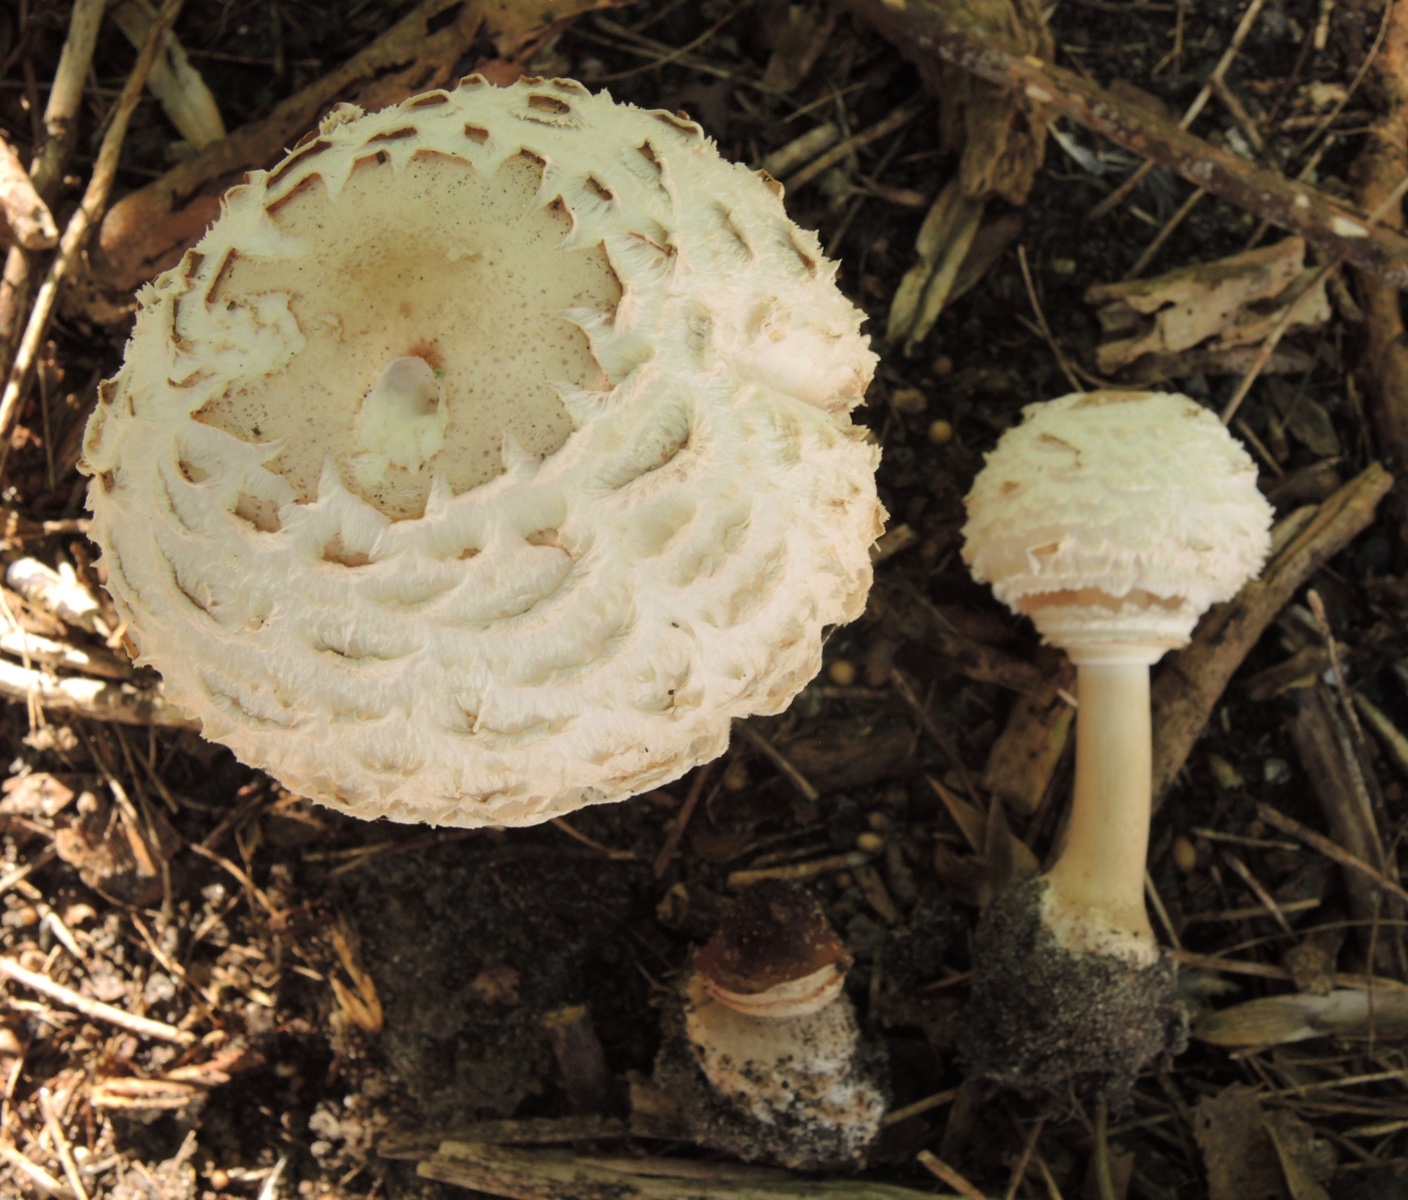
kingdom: Fungi
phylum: Basidiomycota
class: Agaricomycetes
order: Agaricales
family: Agaricaceae
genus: Chlorophyllum
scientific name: Chlorophyllum rhacodes
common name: ægte rabarberhat
